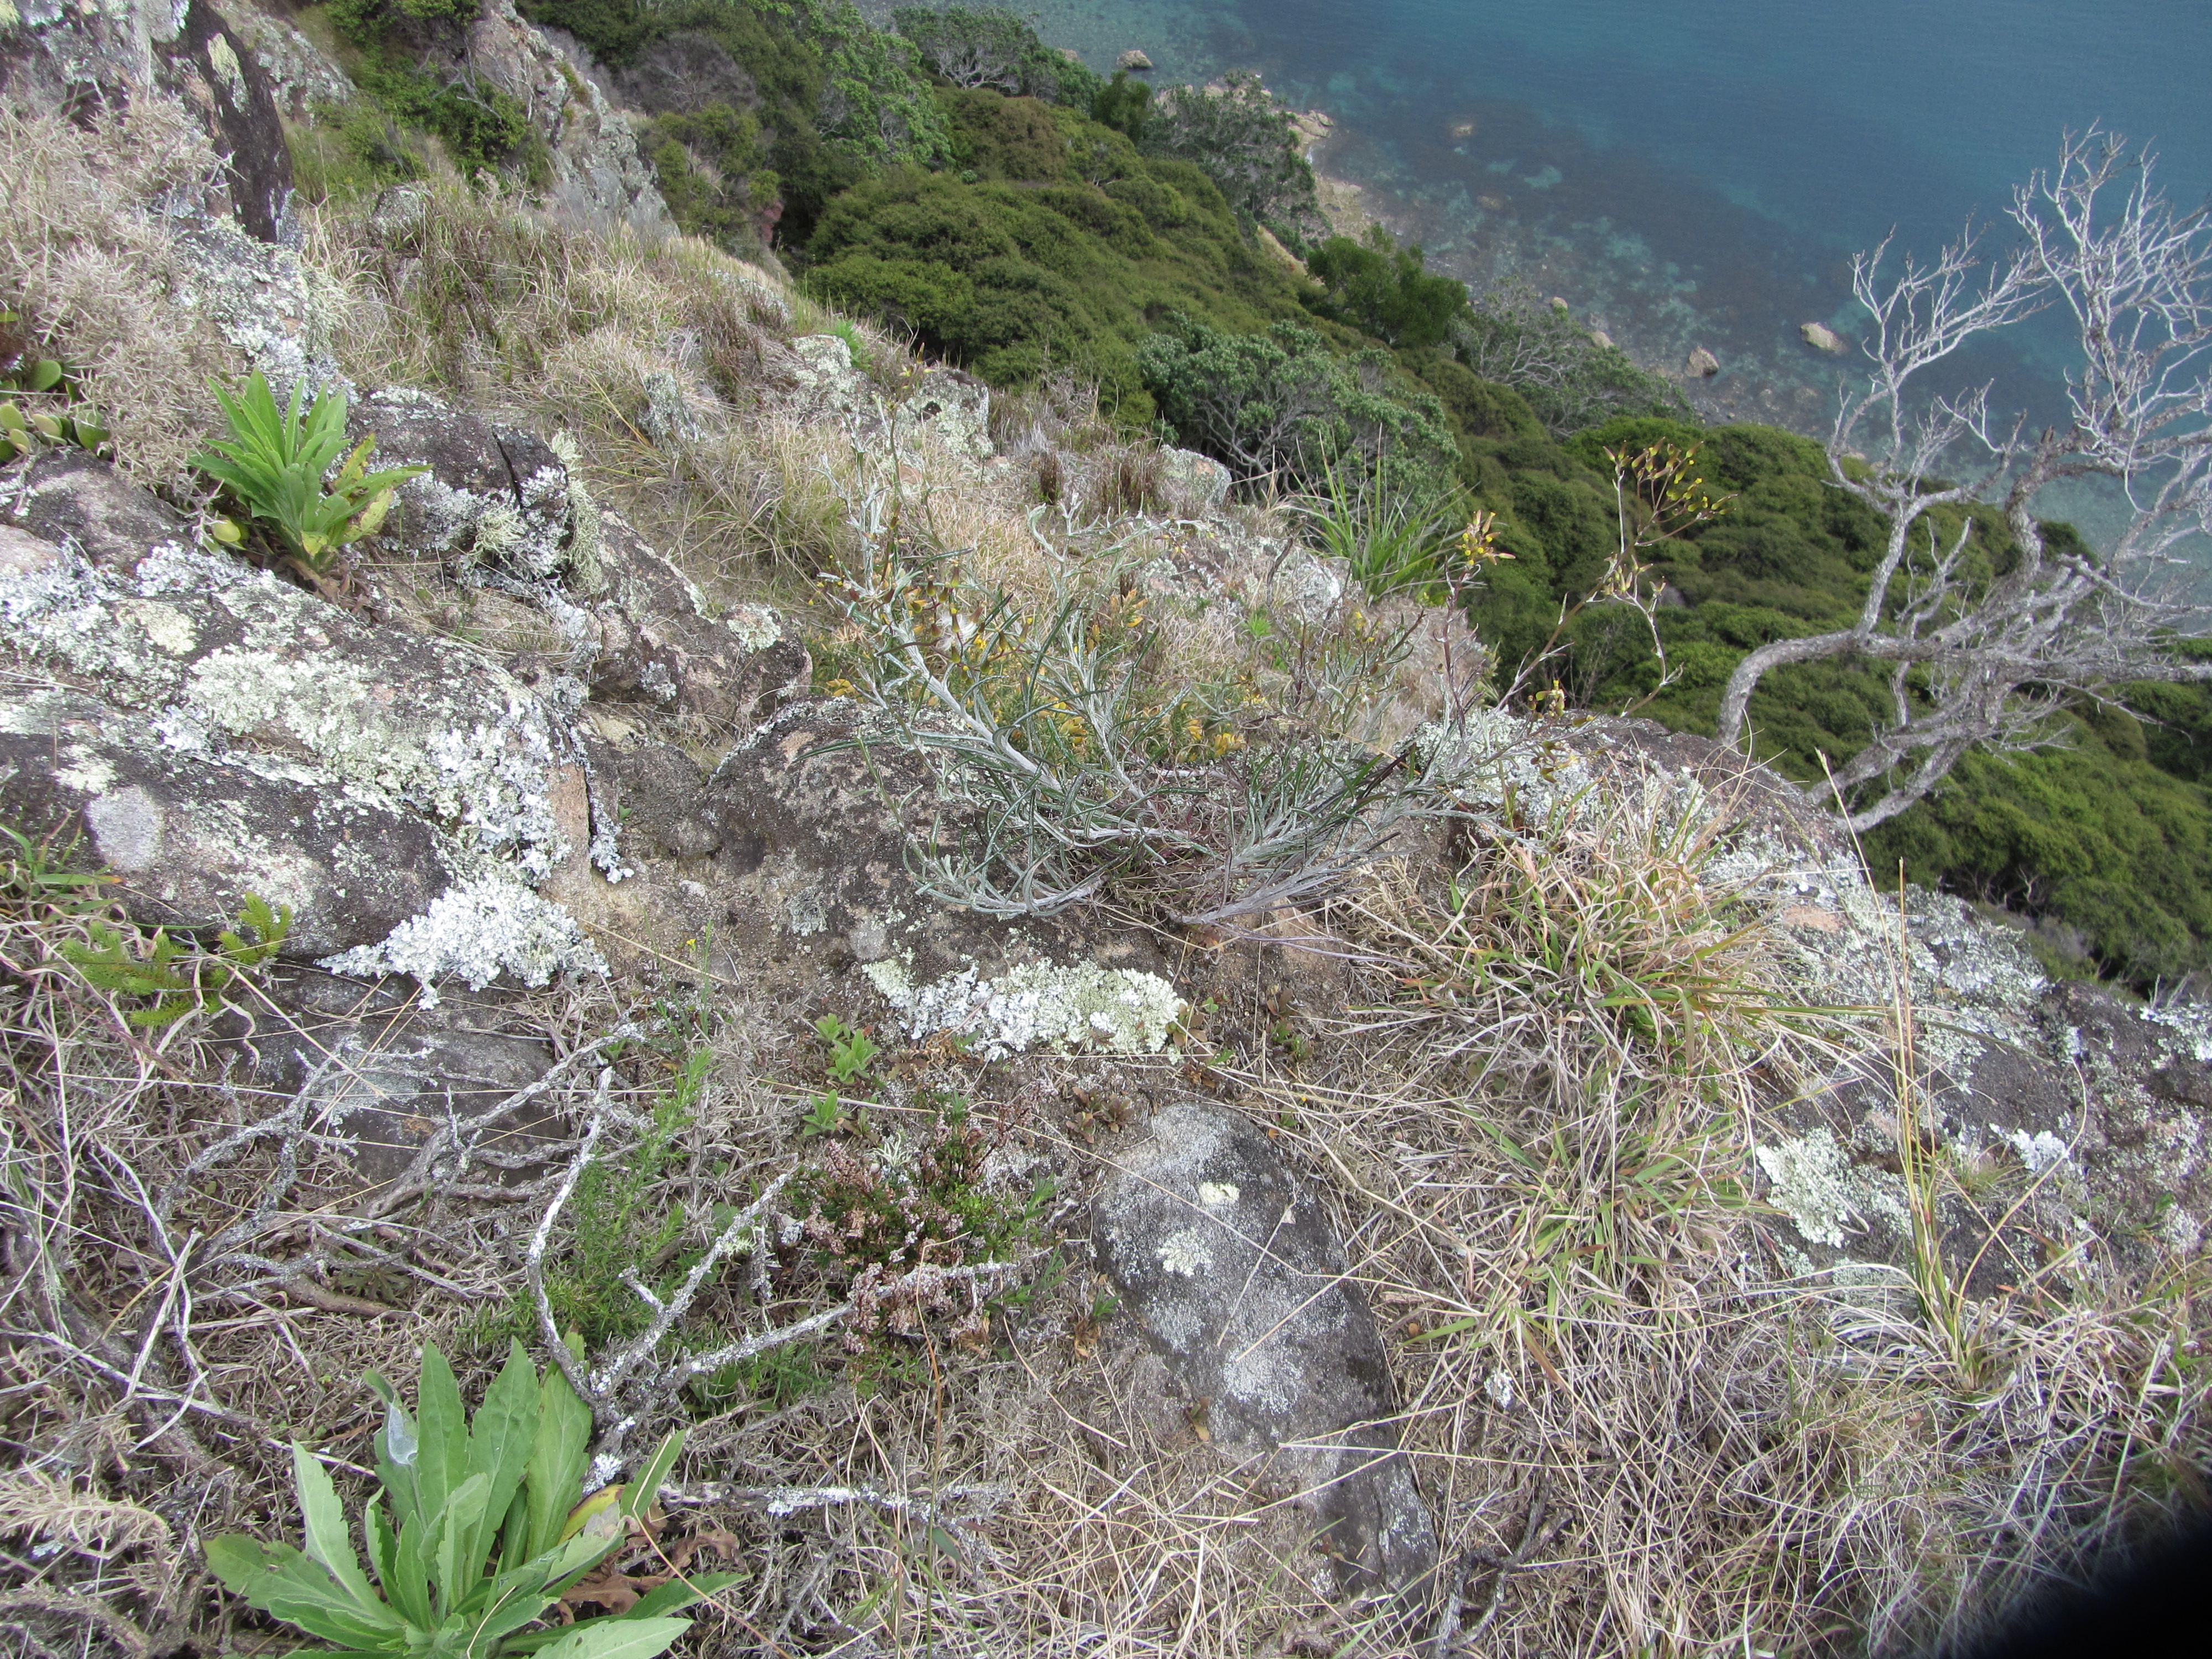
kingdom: Plantae
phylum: Tracheophyta
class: Magnoliopsida
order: Asterales
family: Asteraceae
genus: Senecio
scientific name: Senecio quadridentatus
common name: Cotton fireweed
